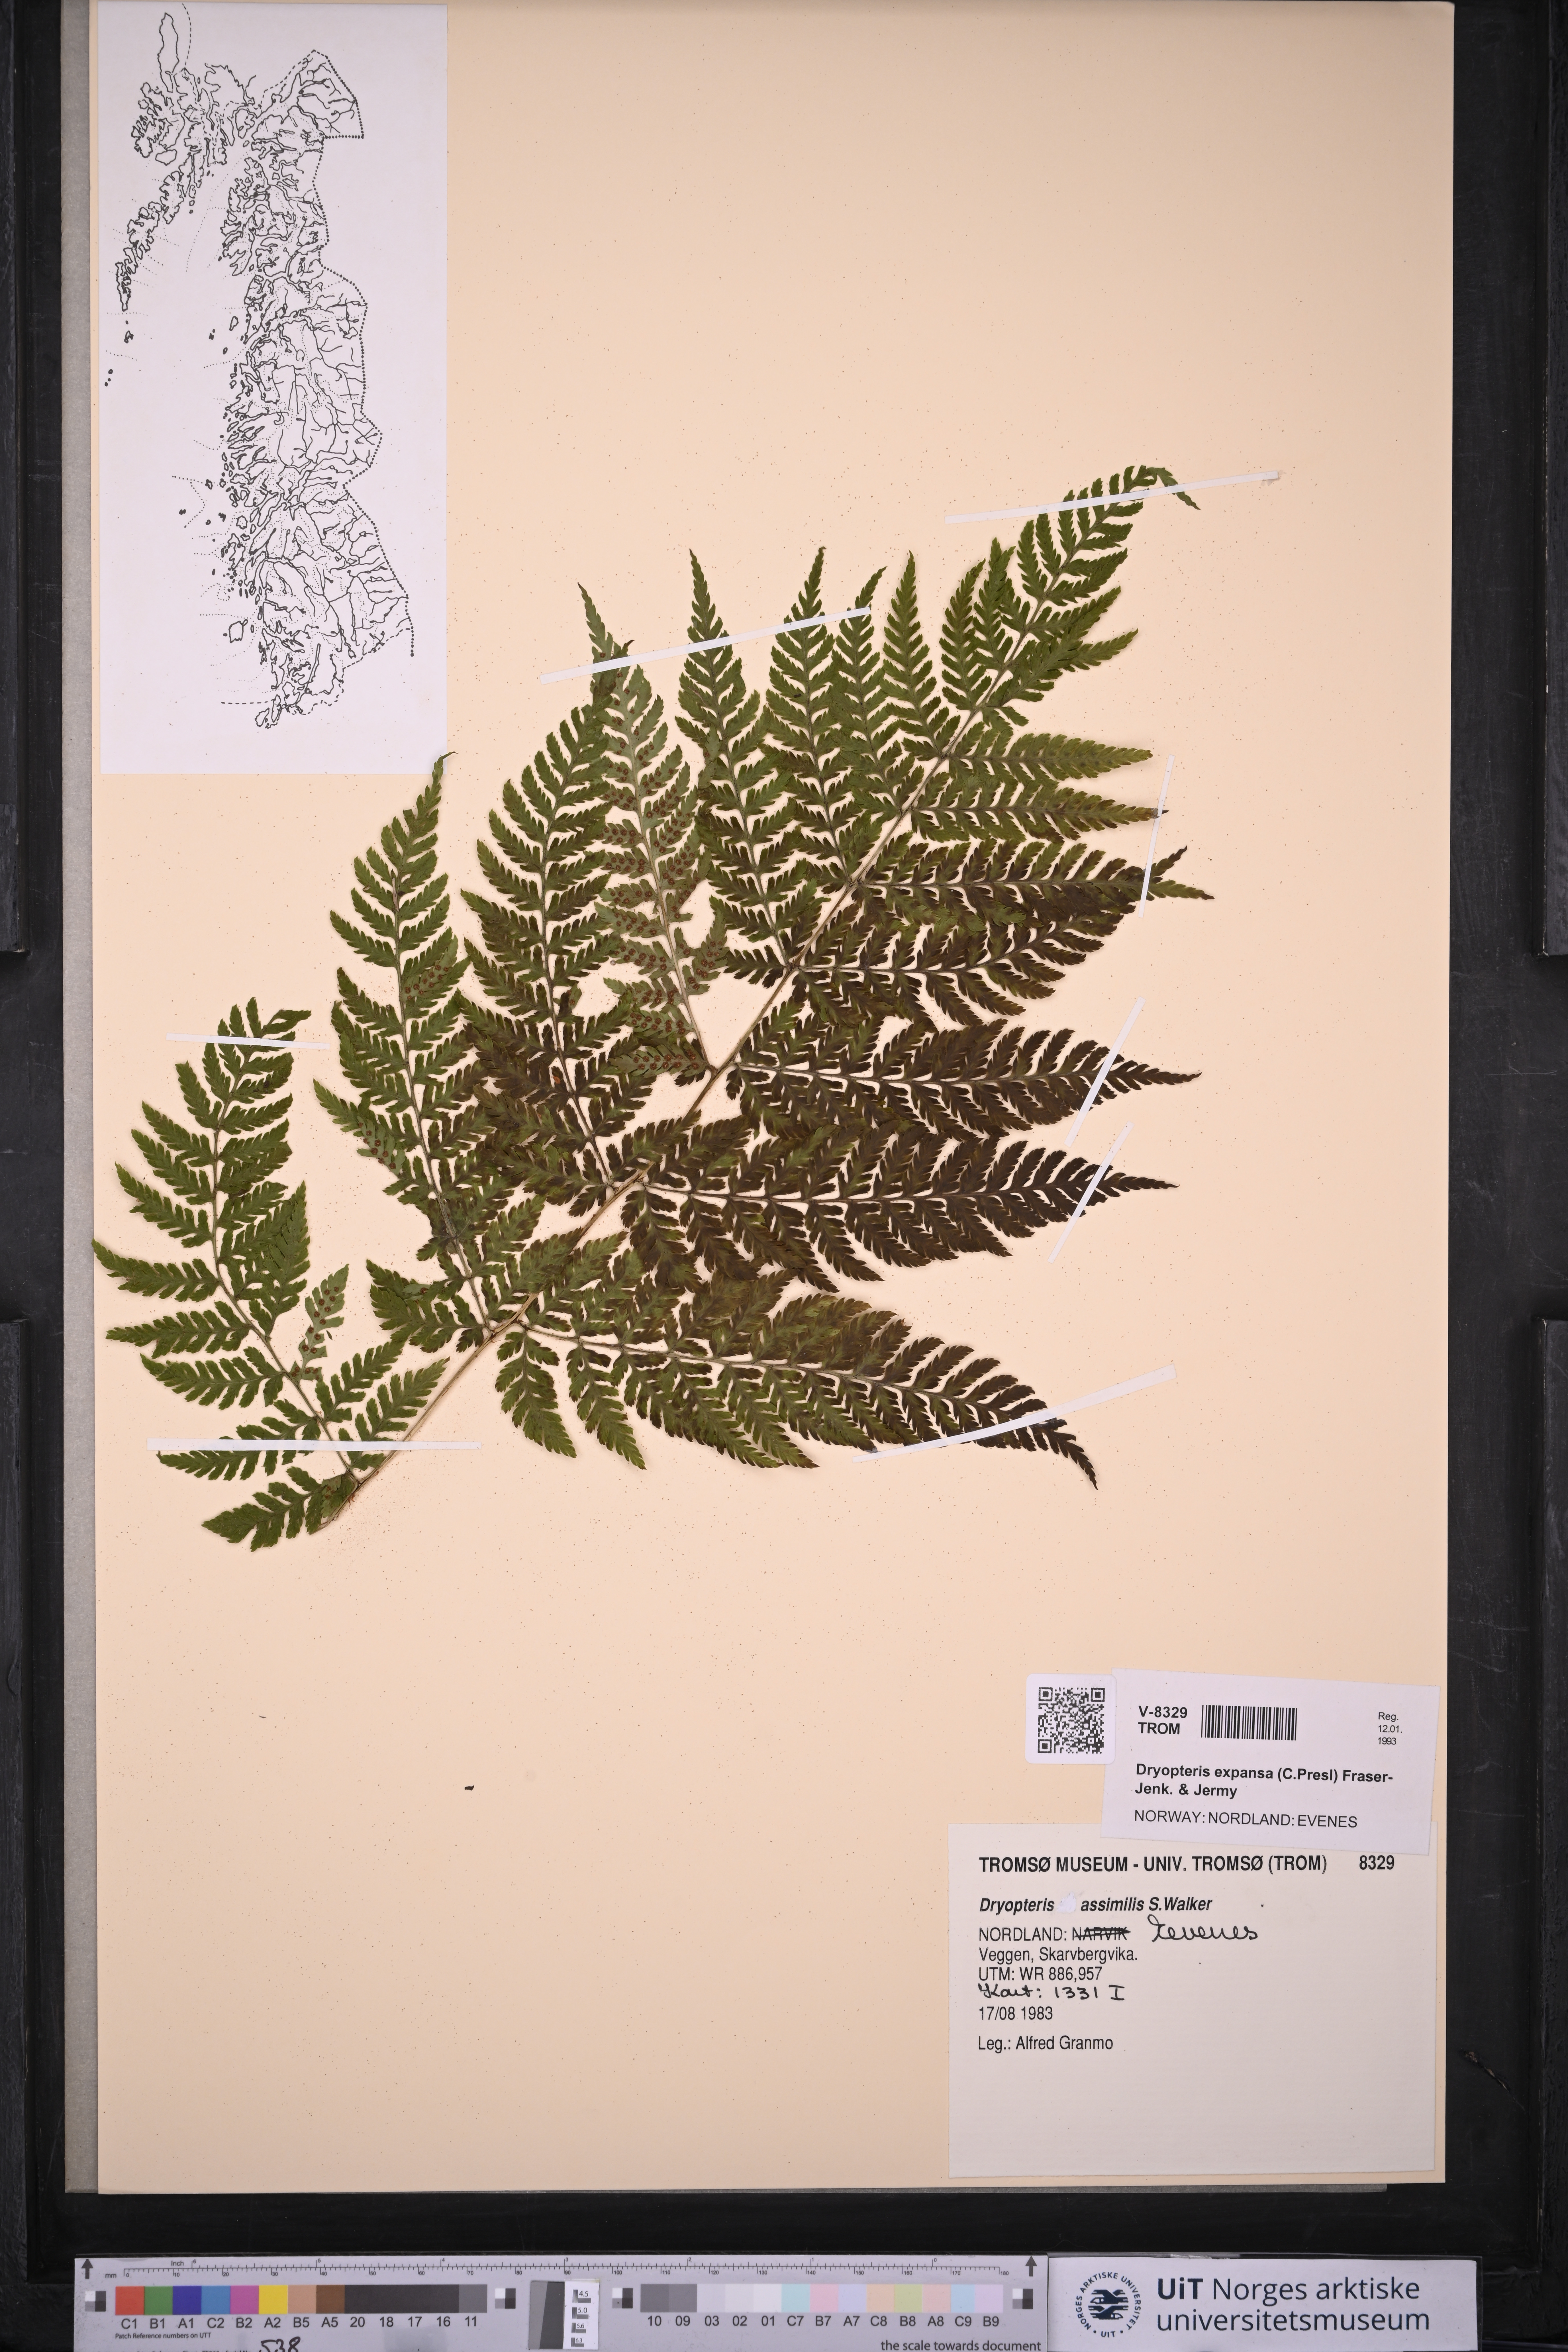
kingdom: Plantae
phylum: Tracheophyta
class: Polypodiopsida
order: Polypodiales
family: Dryopteridaceae
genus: Dryopteris
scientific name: Dryopteris expansa
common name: Northern buckler fern
